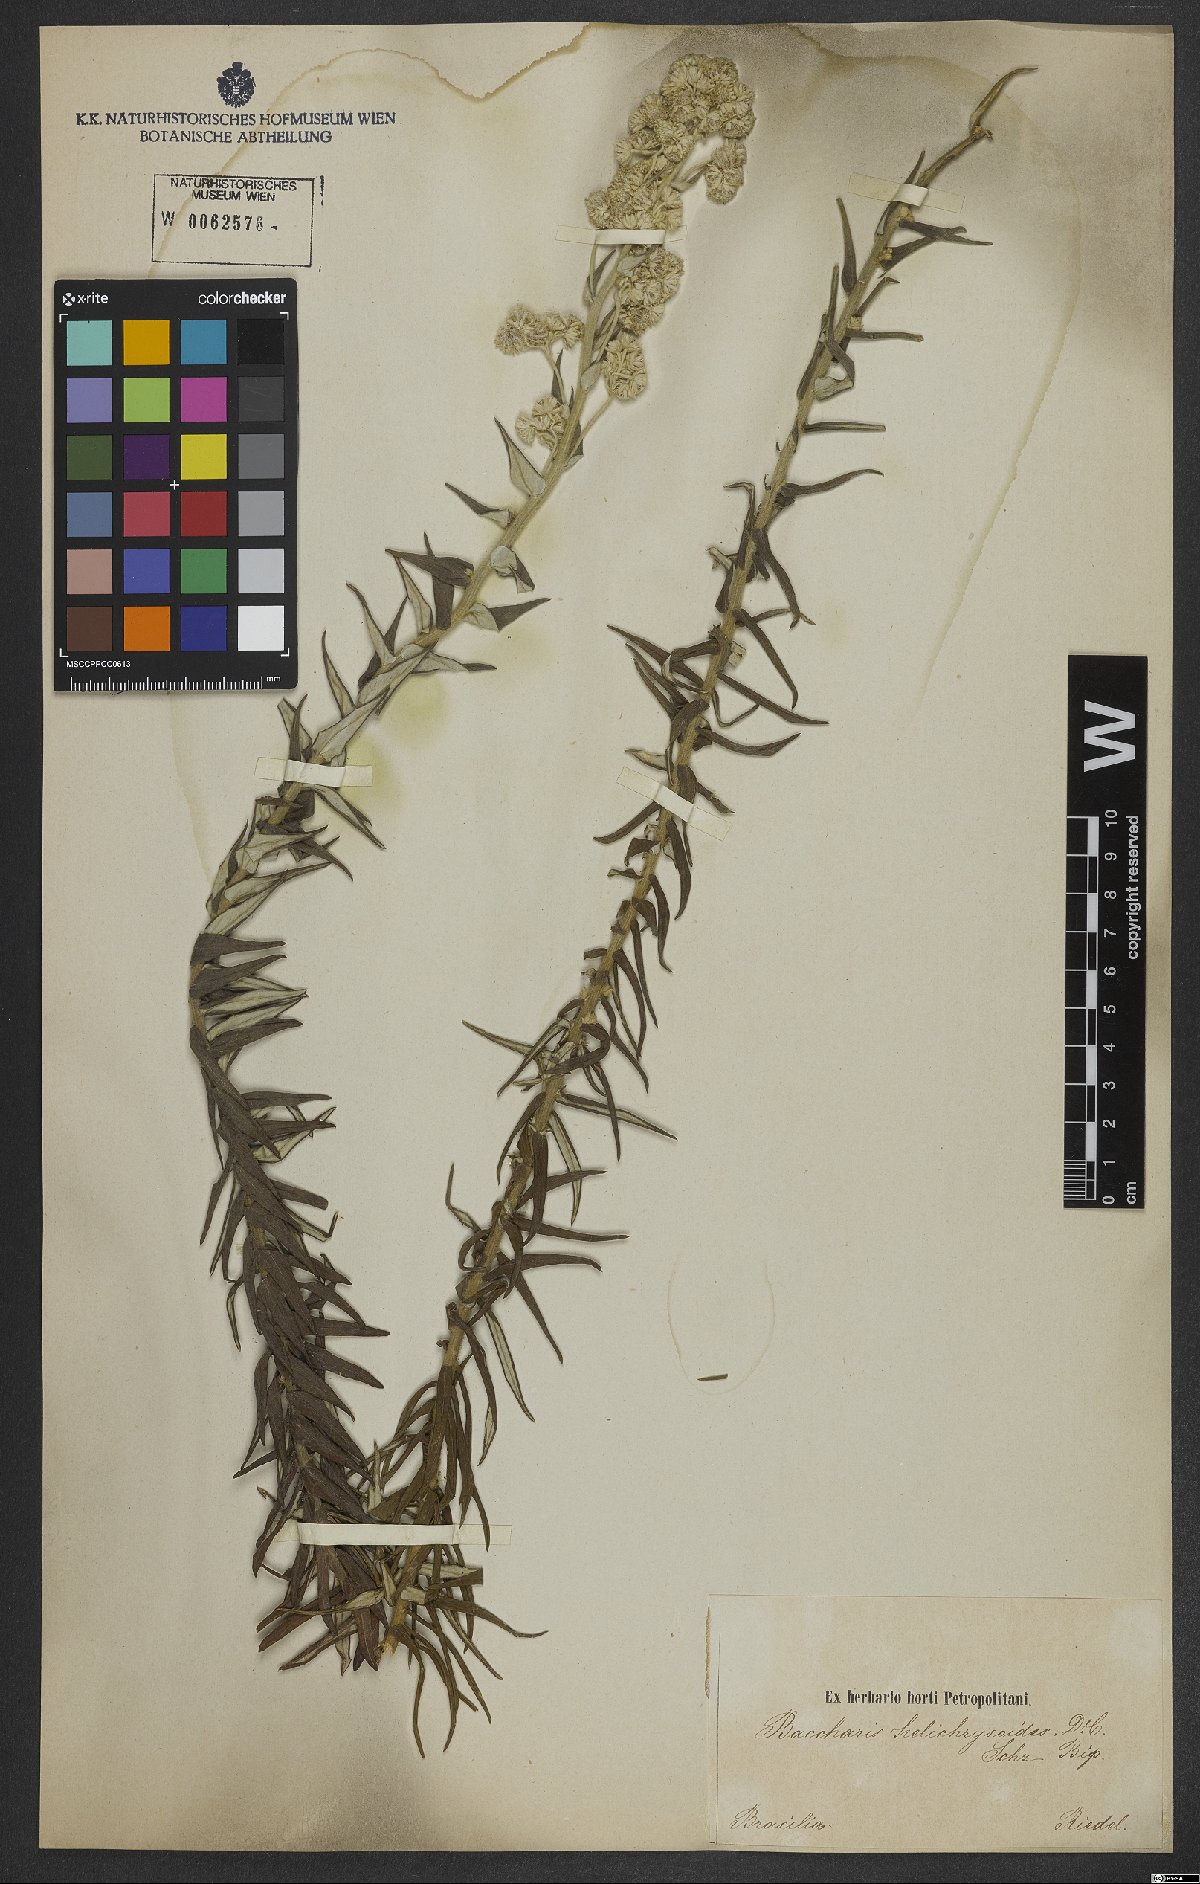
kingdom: Plantae
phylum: Tracheophyta
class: Magnoliopsida
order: Asterales
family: Asteraceae
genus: Baccharis
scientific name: Baccharis helichrysoides
